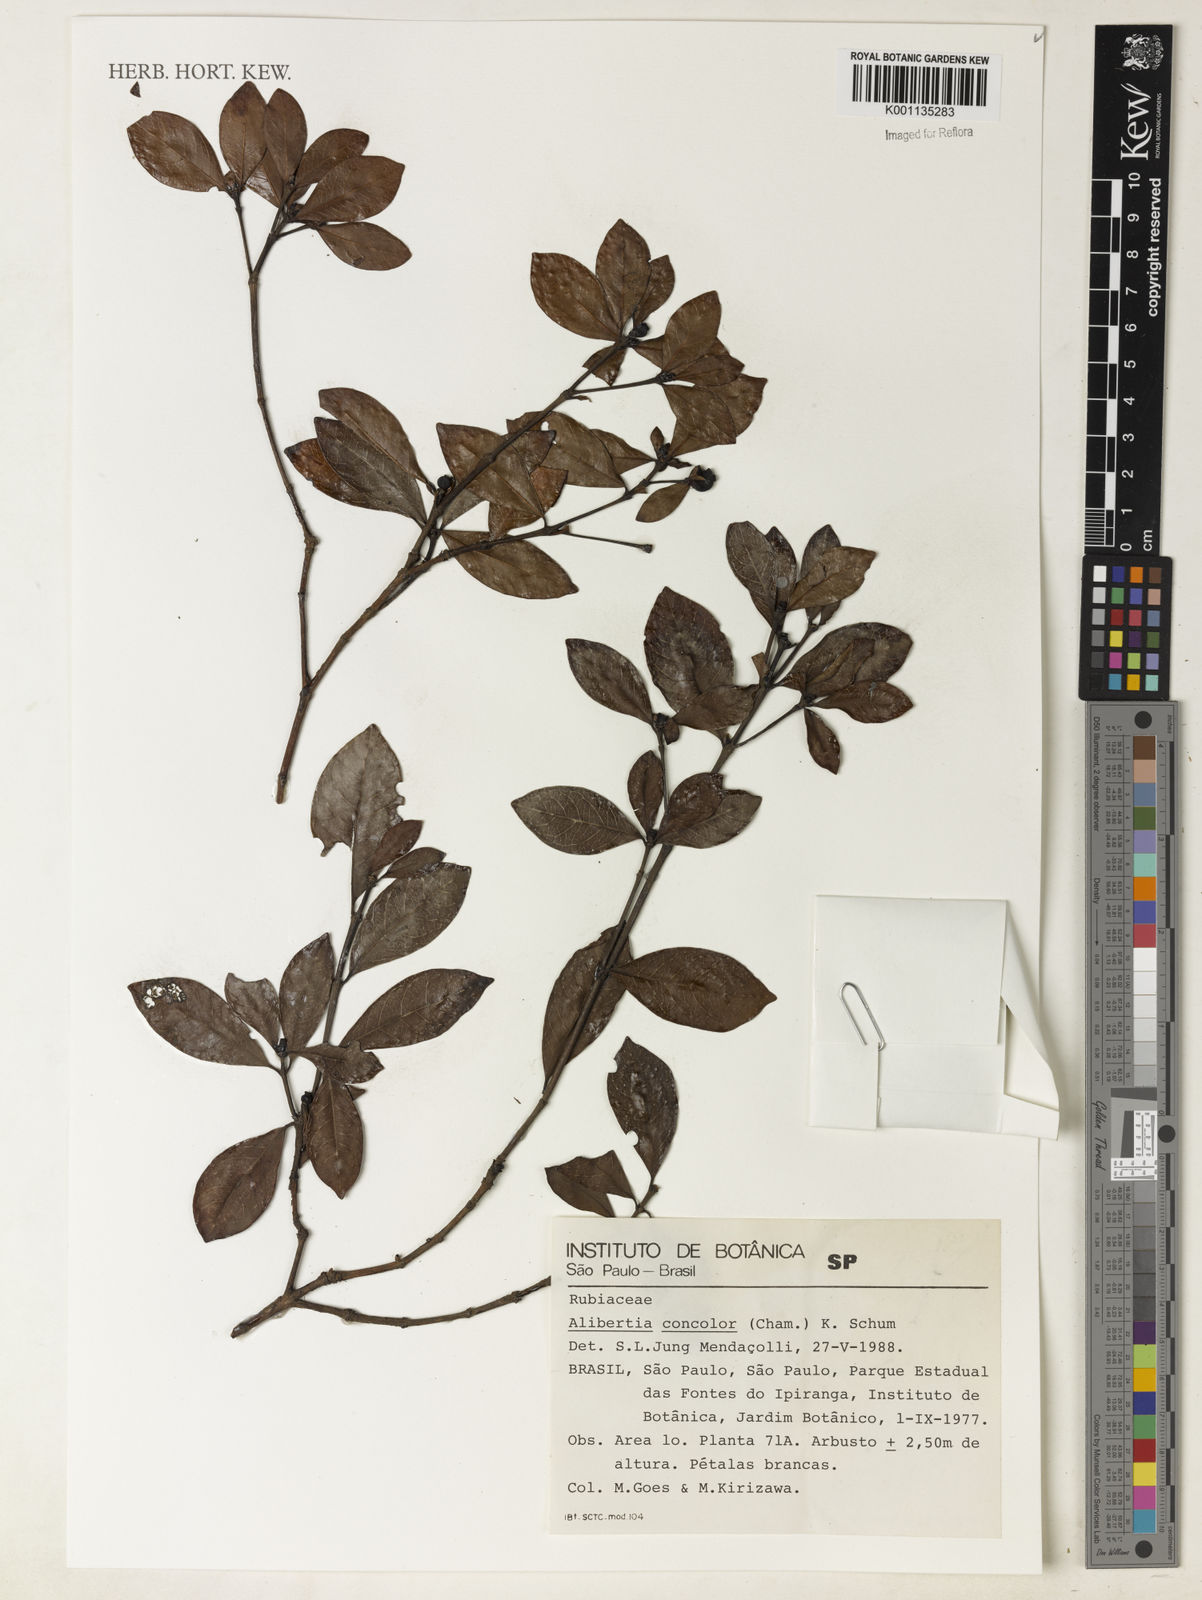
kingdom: Plantae
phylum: Tracheophyta
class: Magnoliopsida
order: Gentianales
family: Rubiaceae
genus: Cordiera
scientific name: Cordiera concolor
